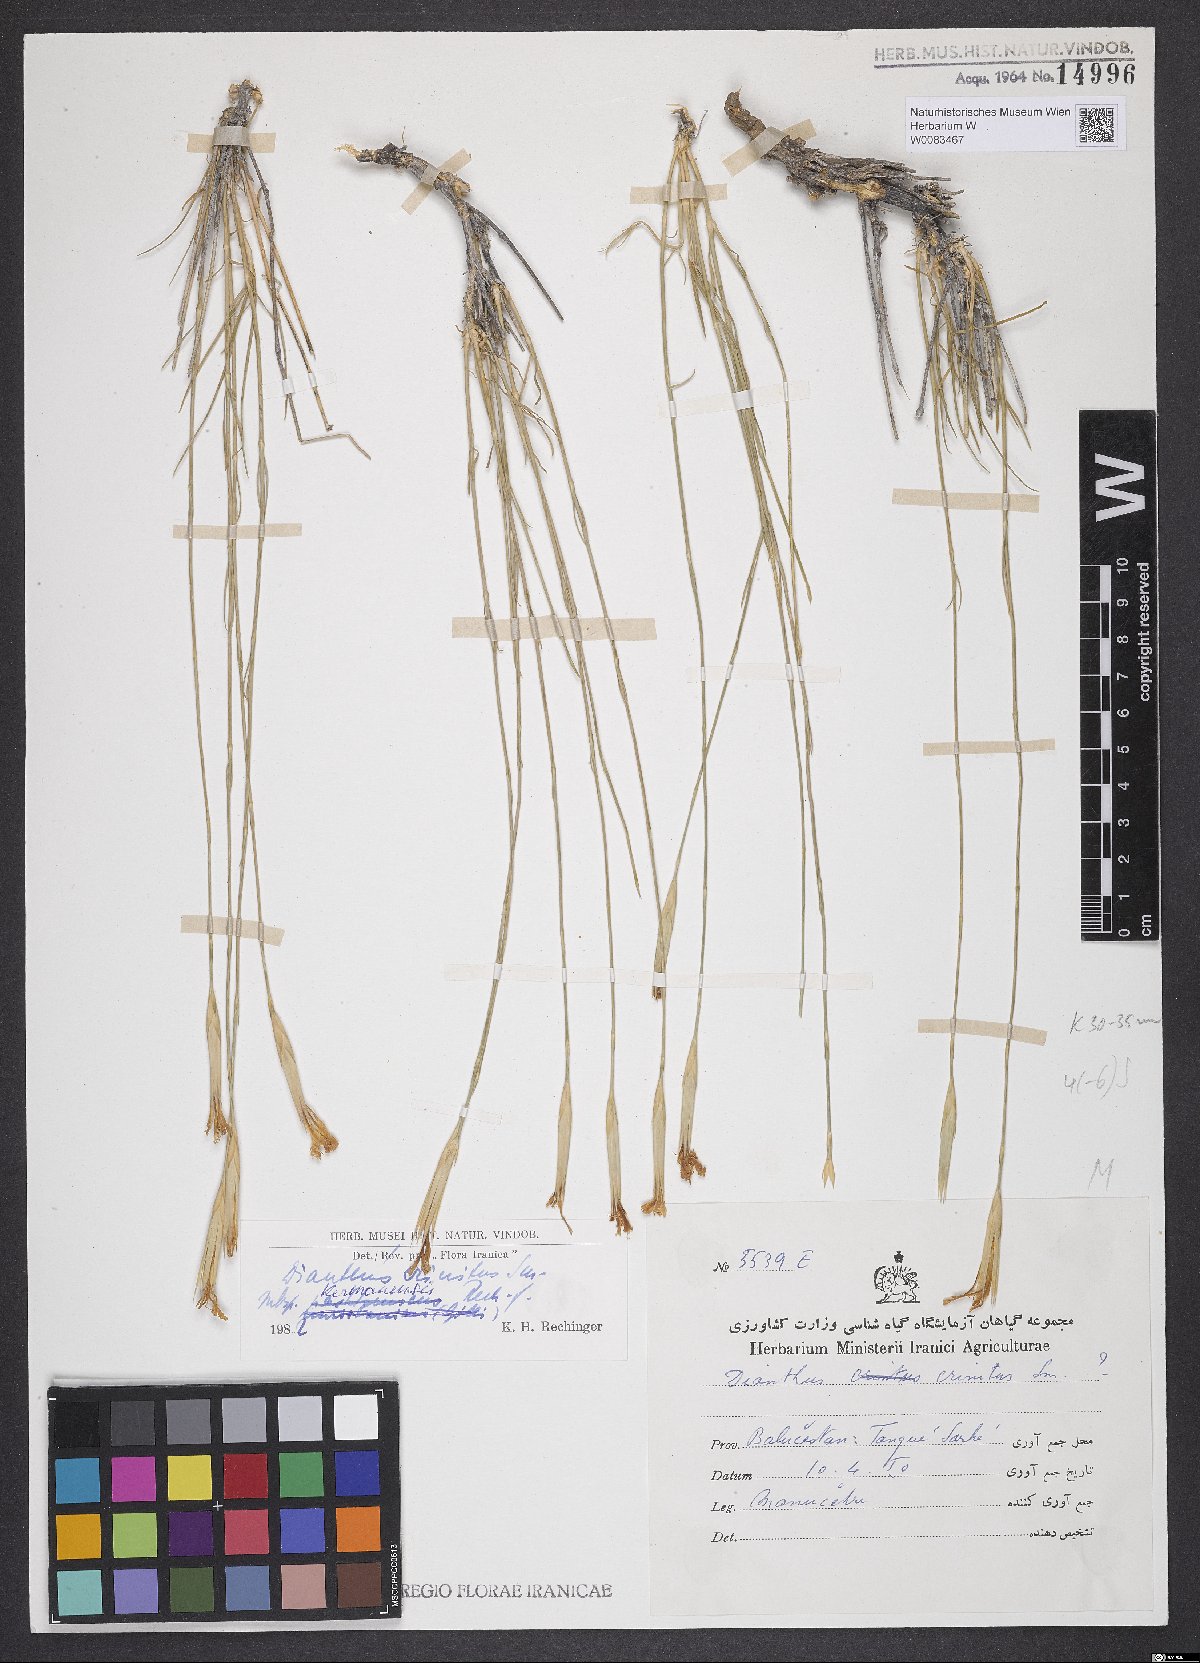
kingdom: Plantae
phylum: Tracheophyta
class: Magnoliopsida
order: Caryophyllales
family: Caryophyllaceae
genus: Dianthus
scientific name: Dianthus crinitus
